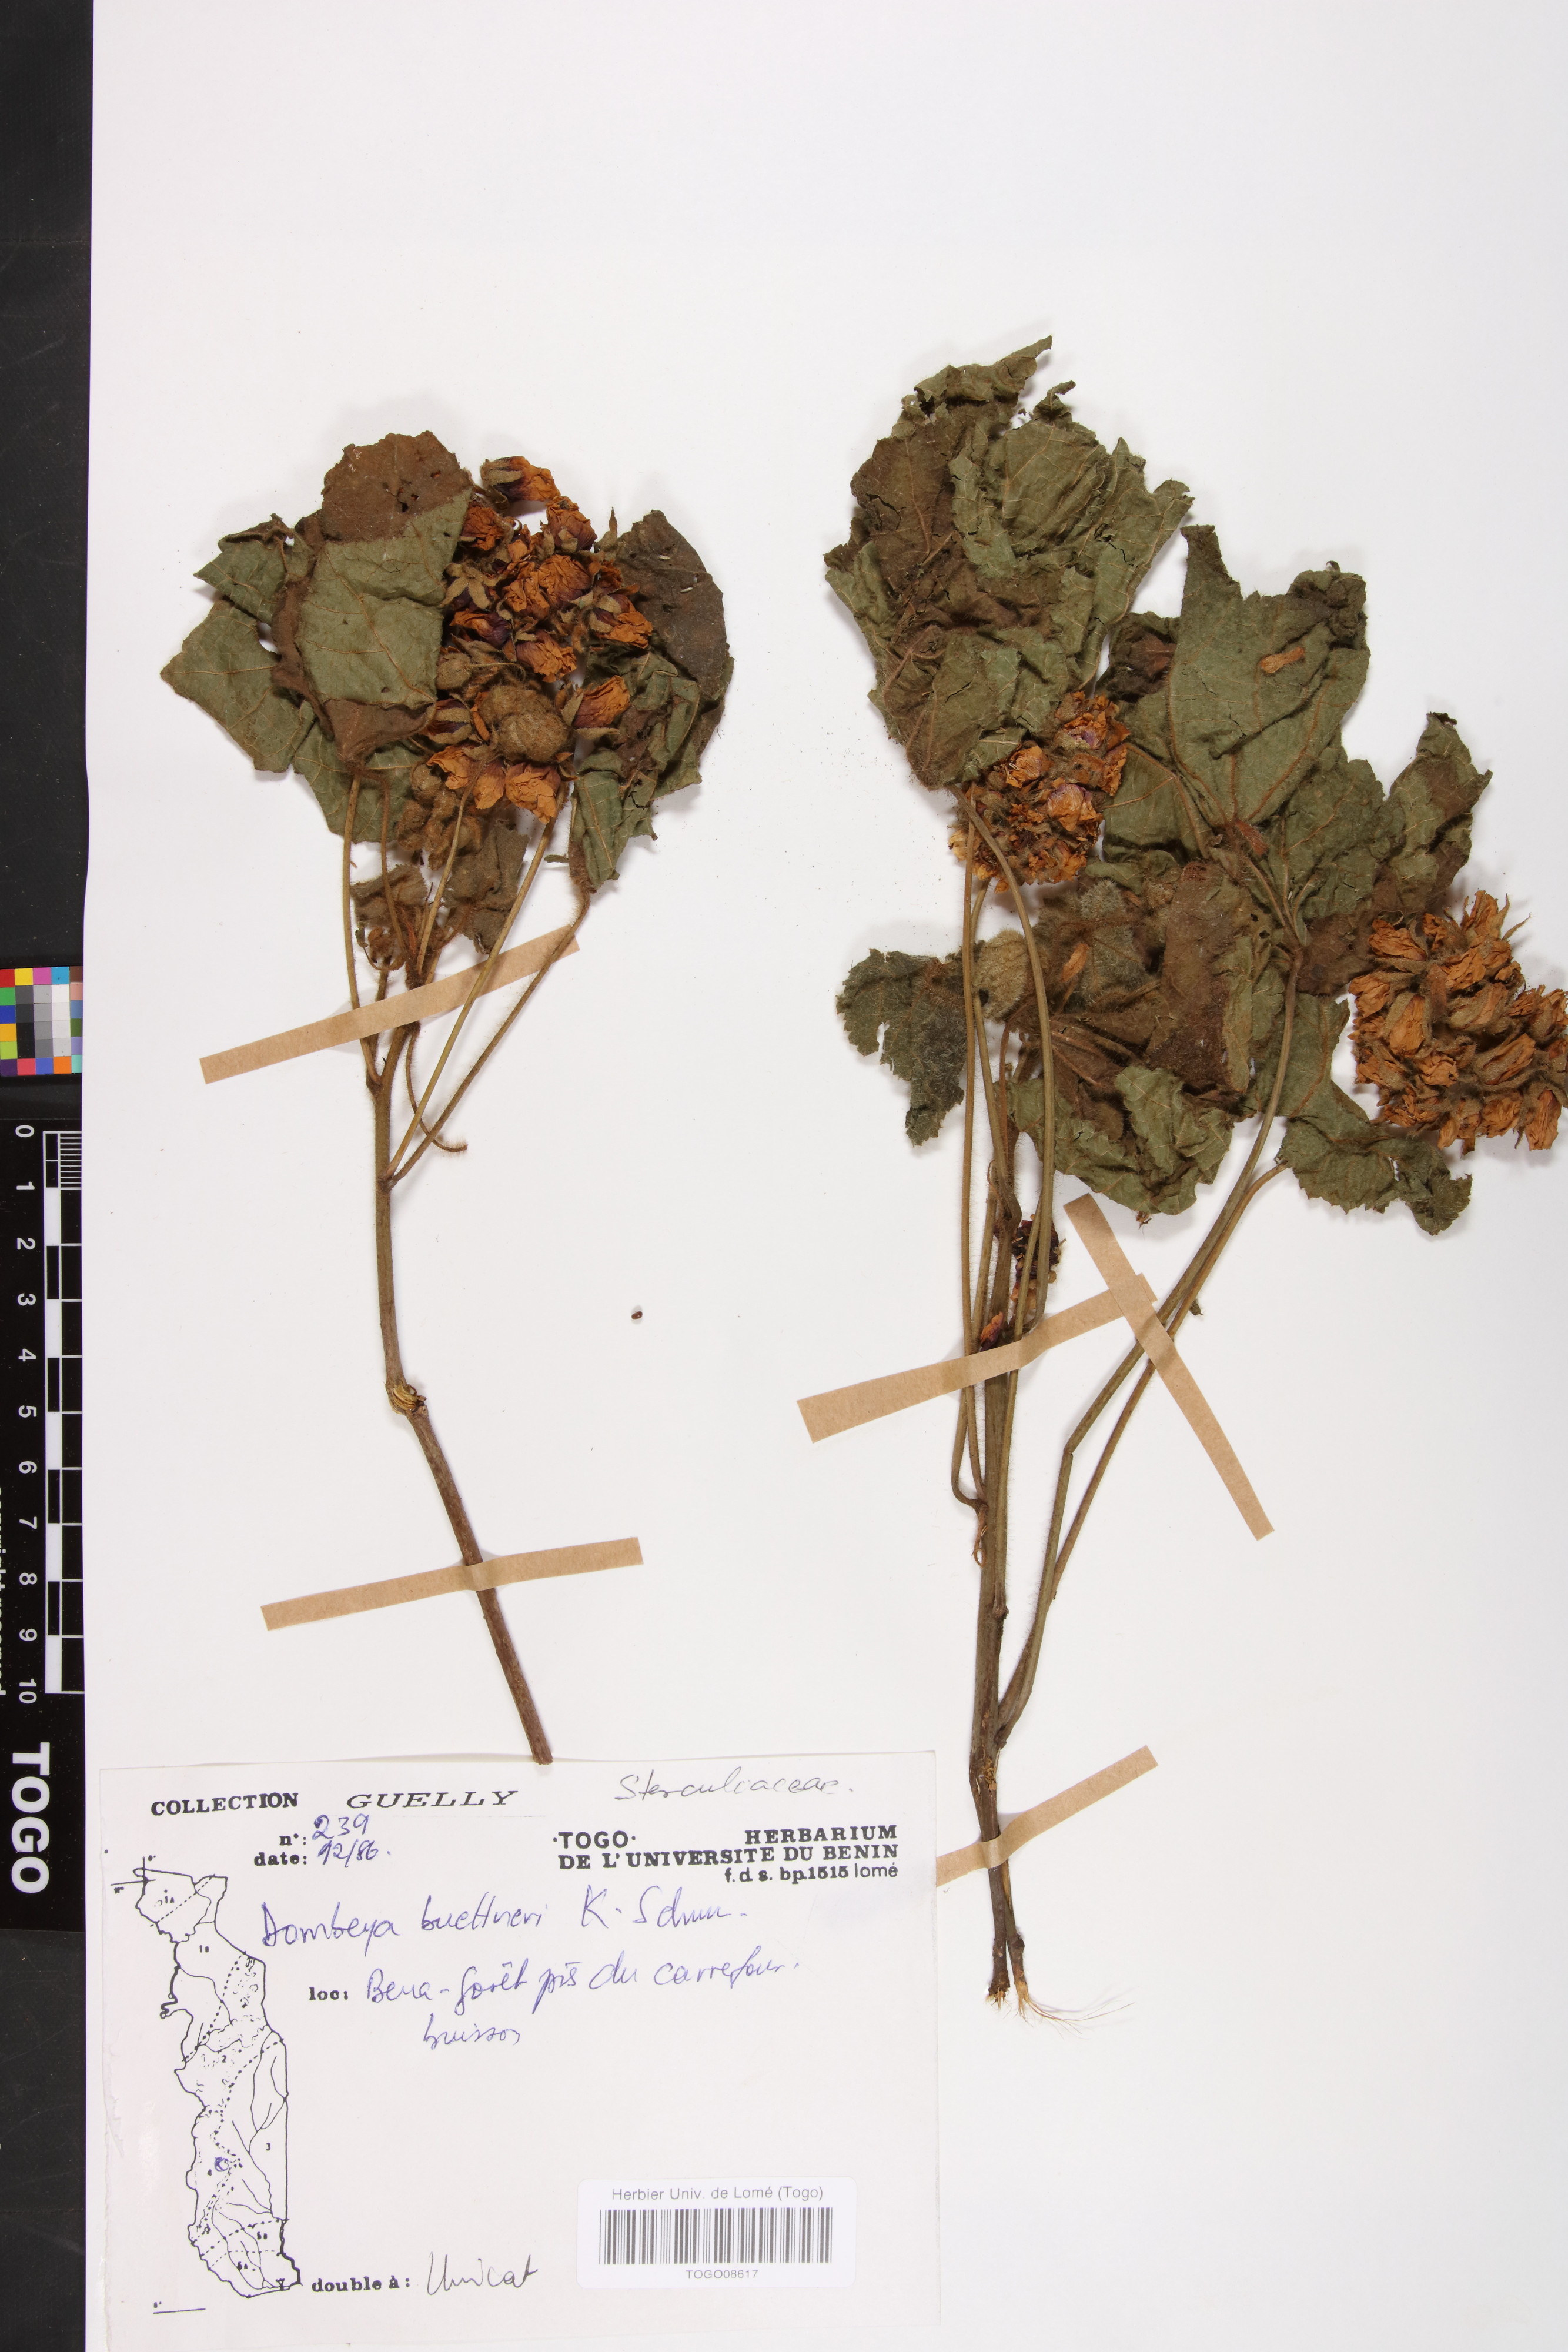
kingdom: Plantae
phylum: Tracheophyta
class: Magnoliopsida
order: Malvales
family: Malvaceae
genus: Dombeya
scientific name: Dombeya buettneri
